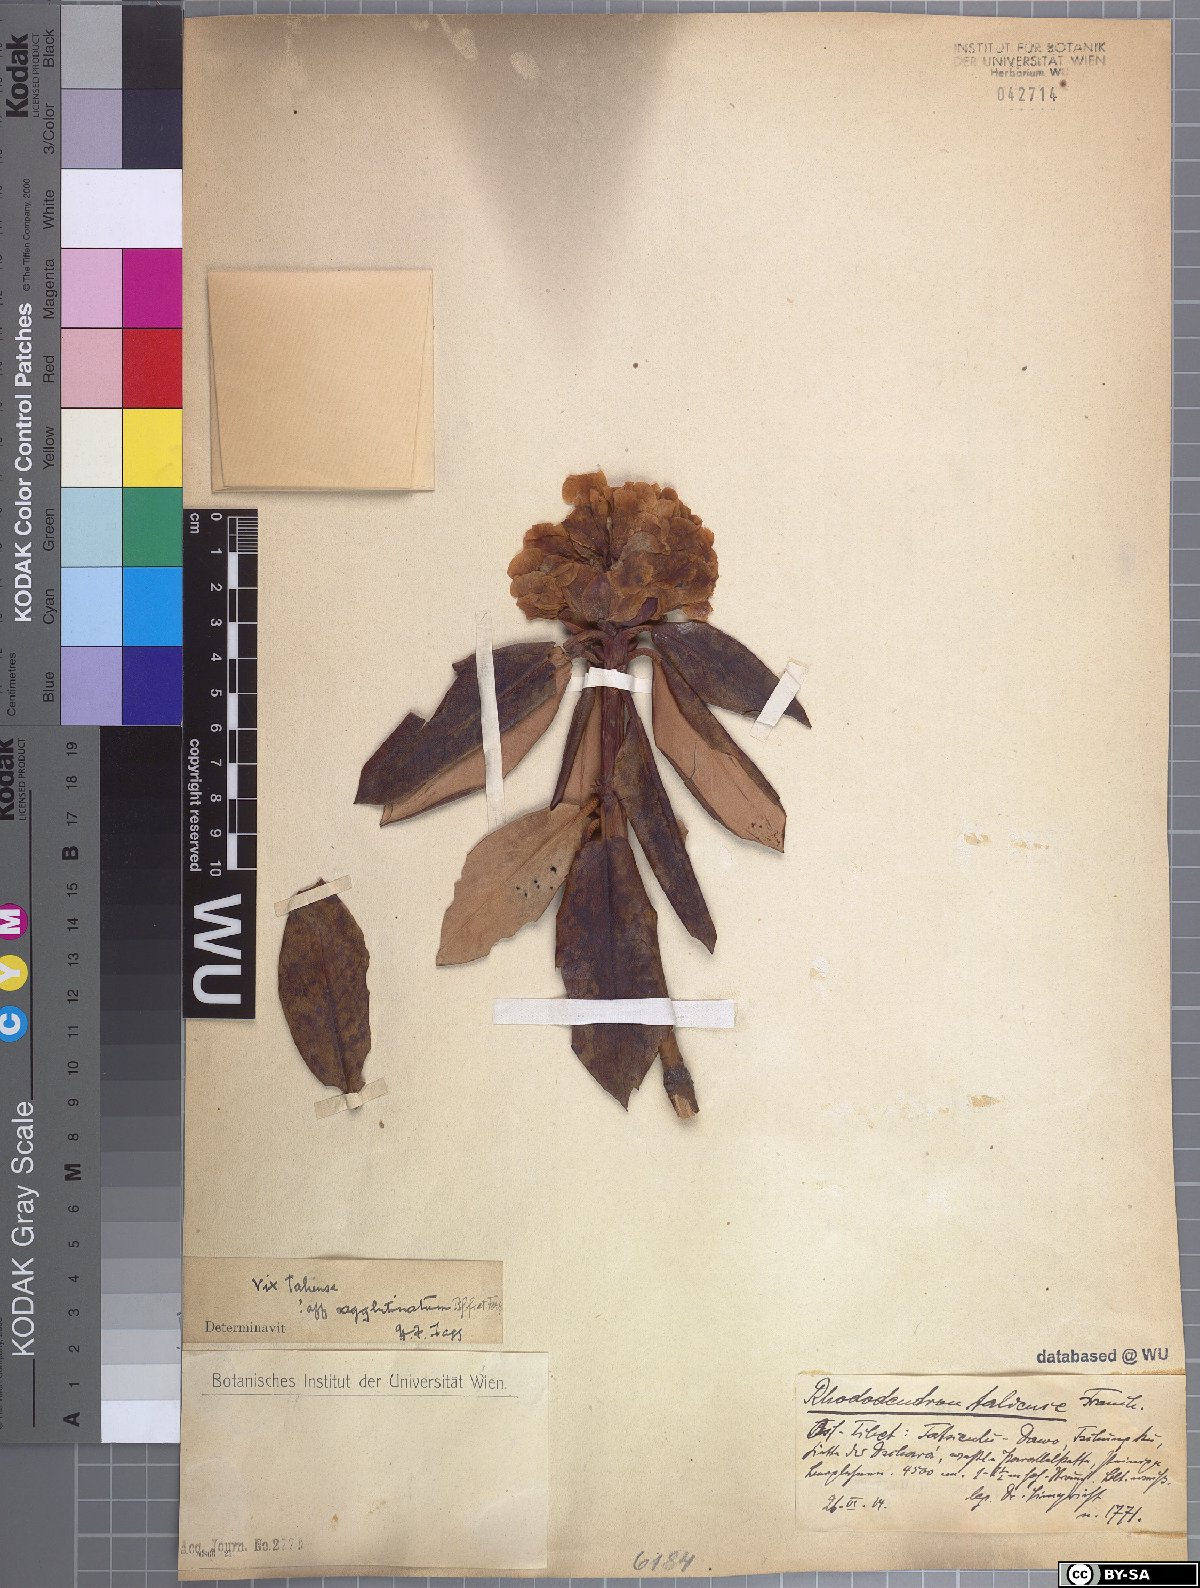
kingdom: Plantae
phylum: Tracheophyta
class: Magnoliopsida
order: Ericales
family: Ericaceae
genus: Rhododendron
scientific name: Rhododendron phaeochrysum
